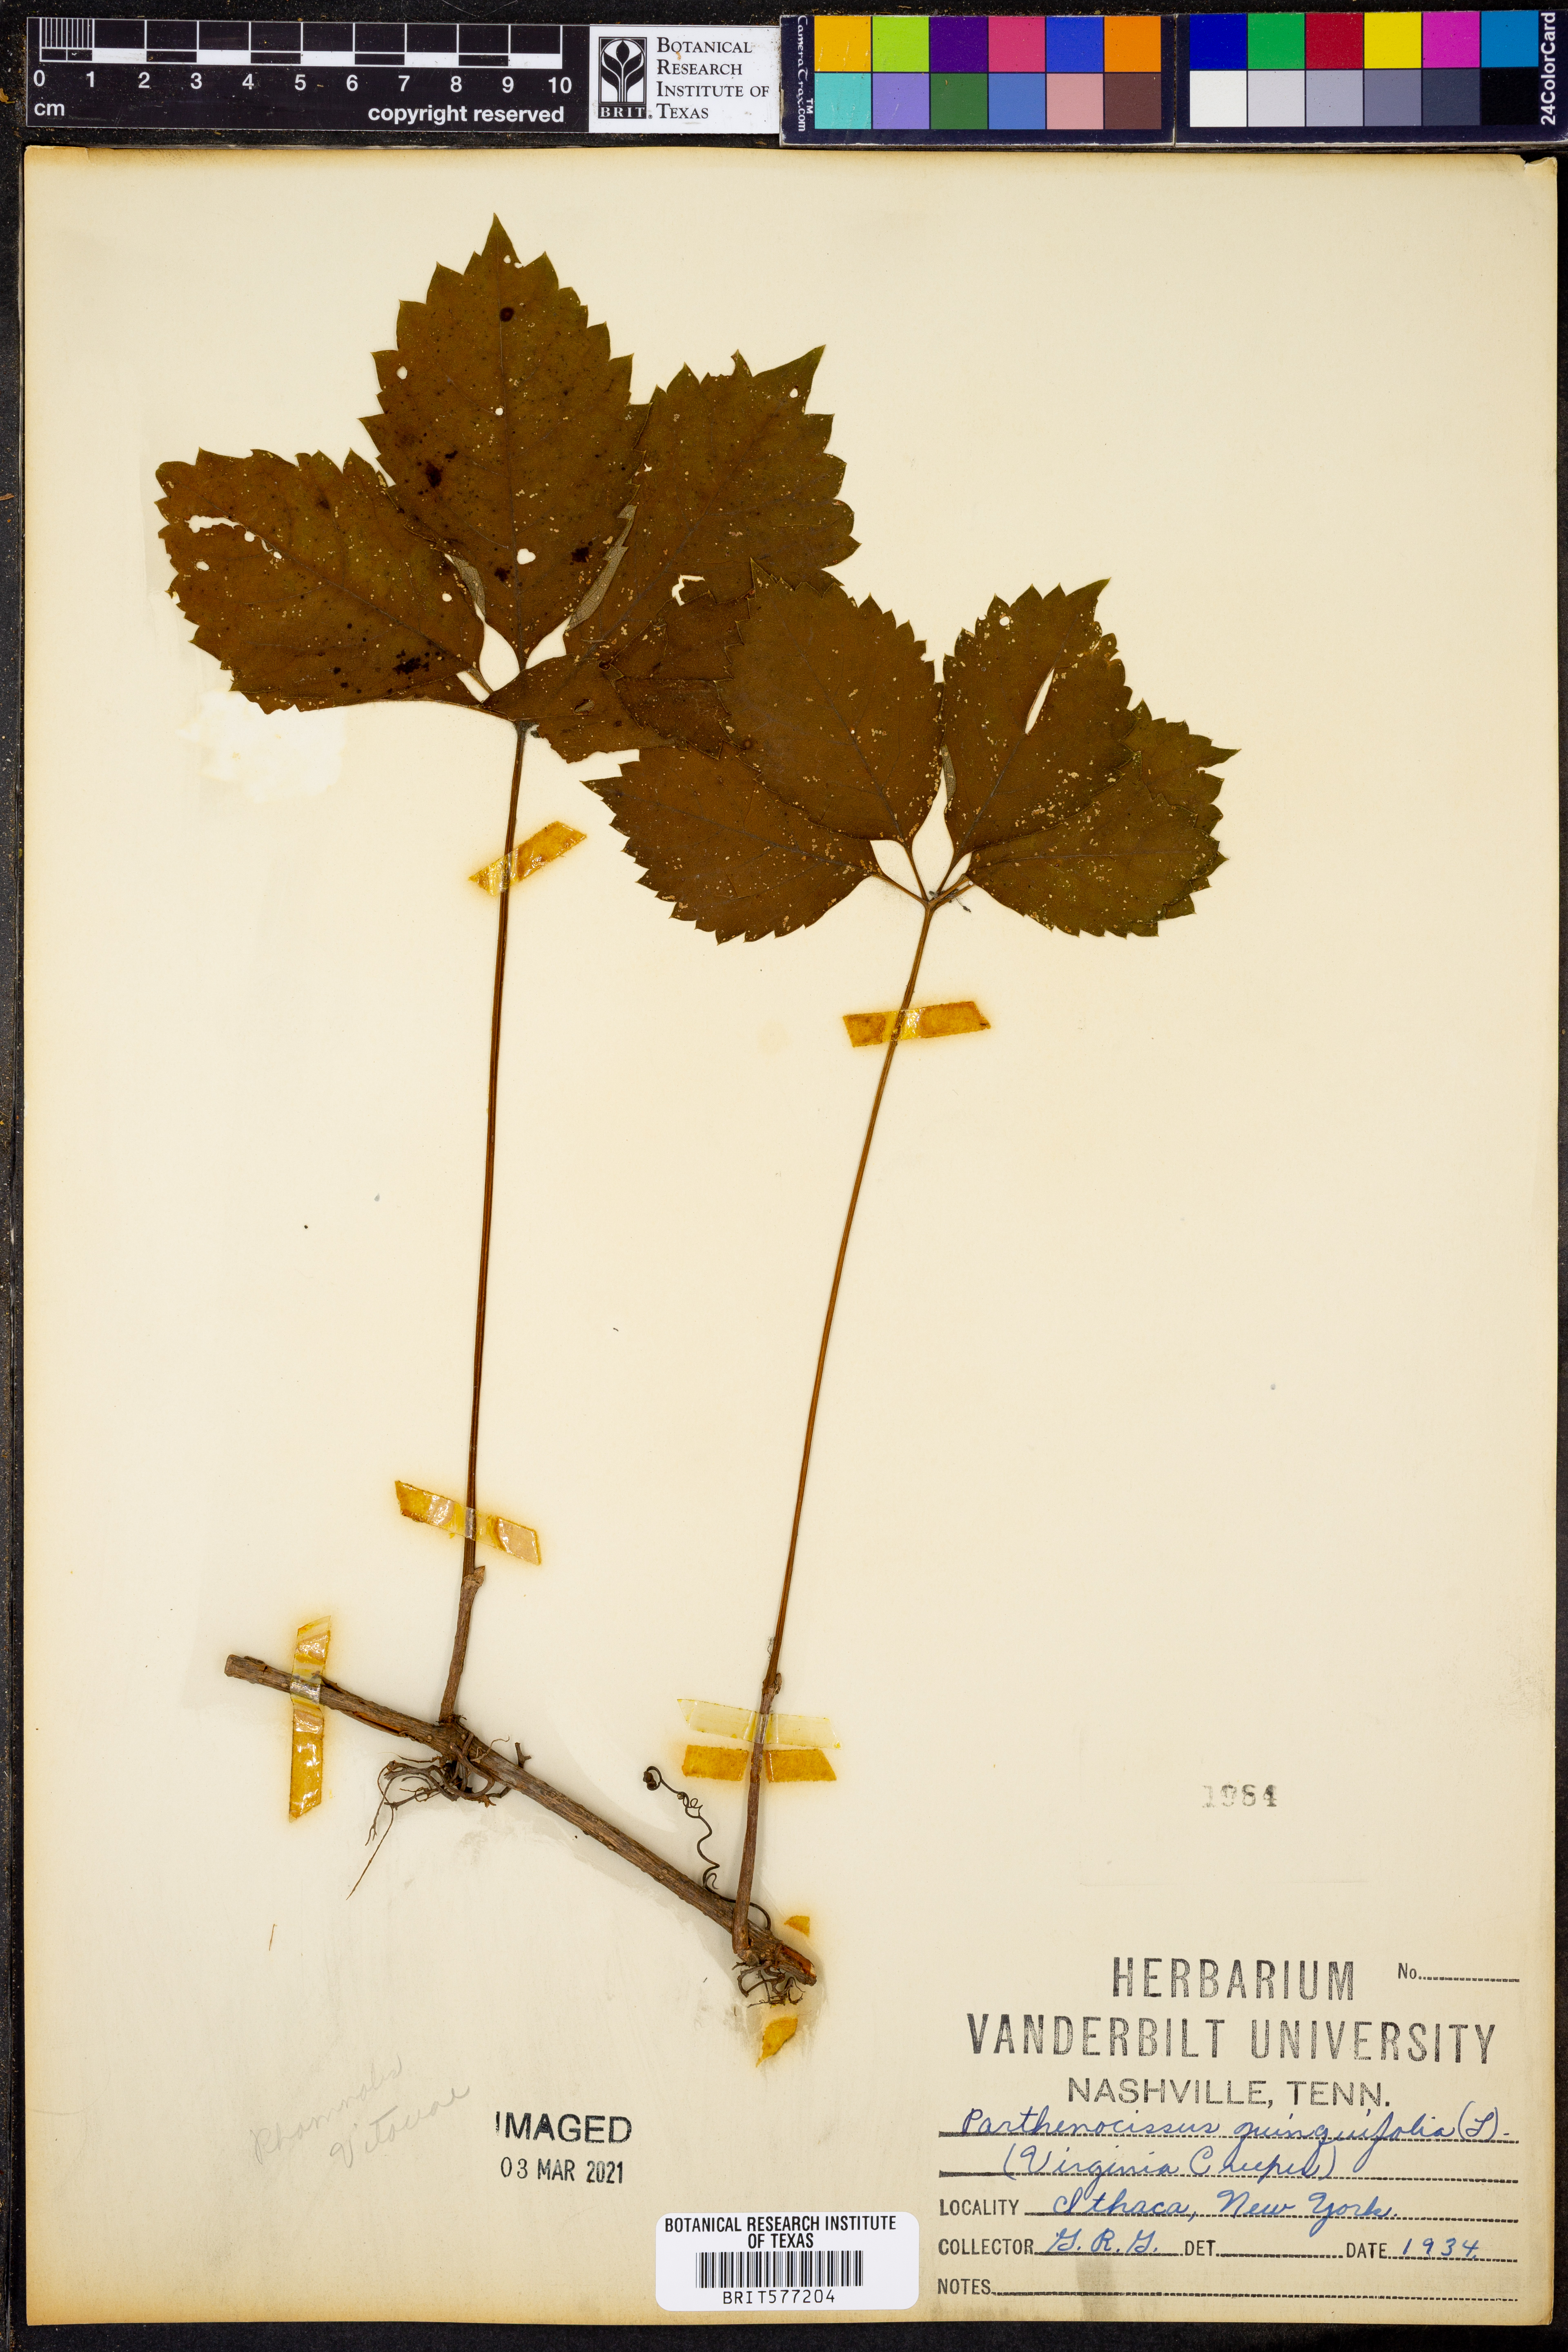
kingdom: Plantae
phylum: Tracheophyta
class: Magnoliopsida
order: Vitales
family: Vitaceae
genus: Parthenocissus
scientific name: Parthenocissus quinquefolia
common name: Virginia-creeper
